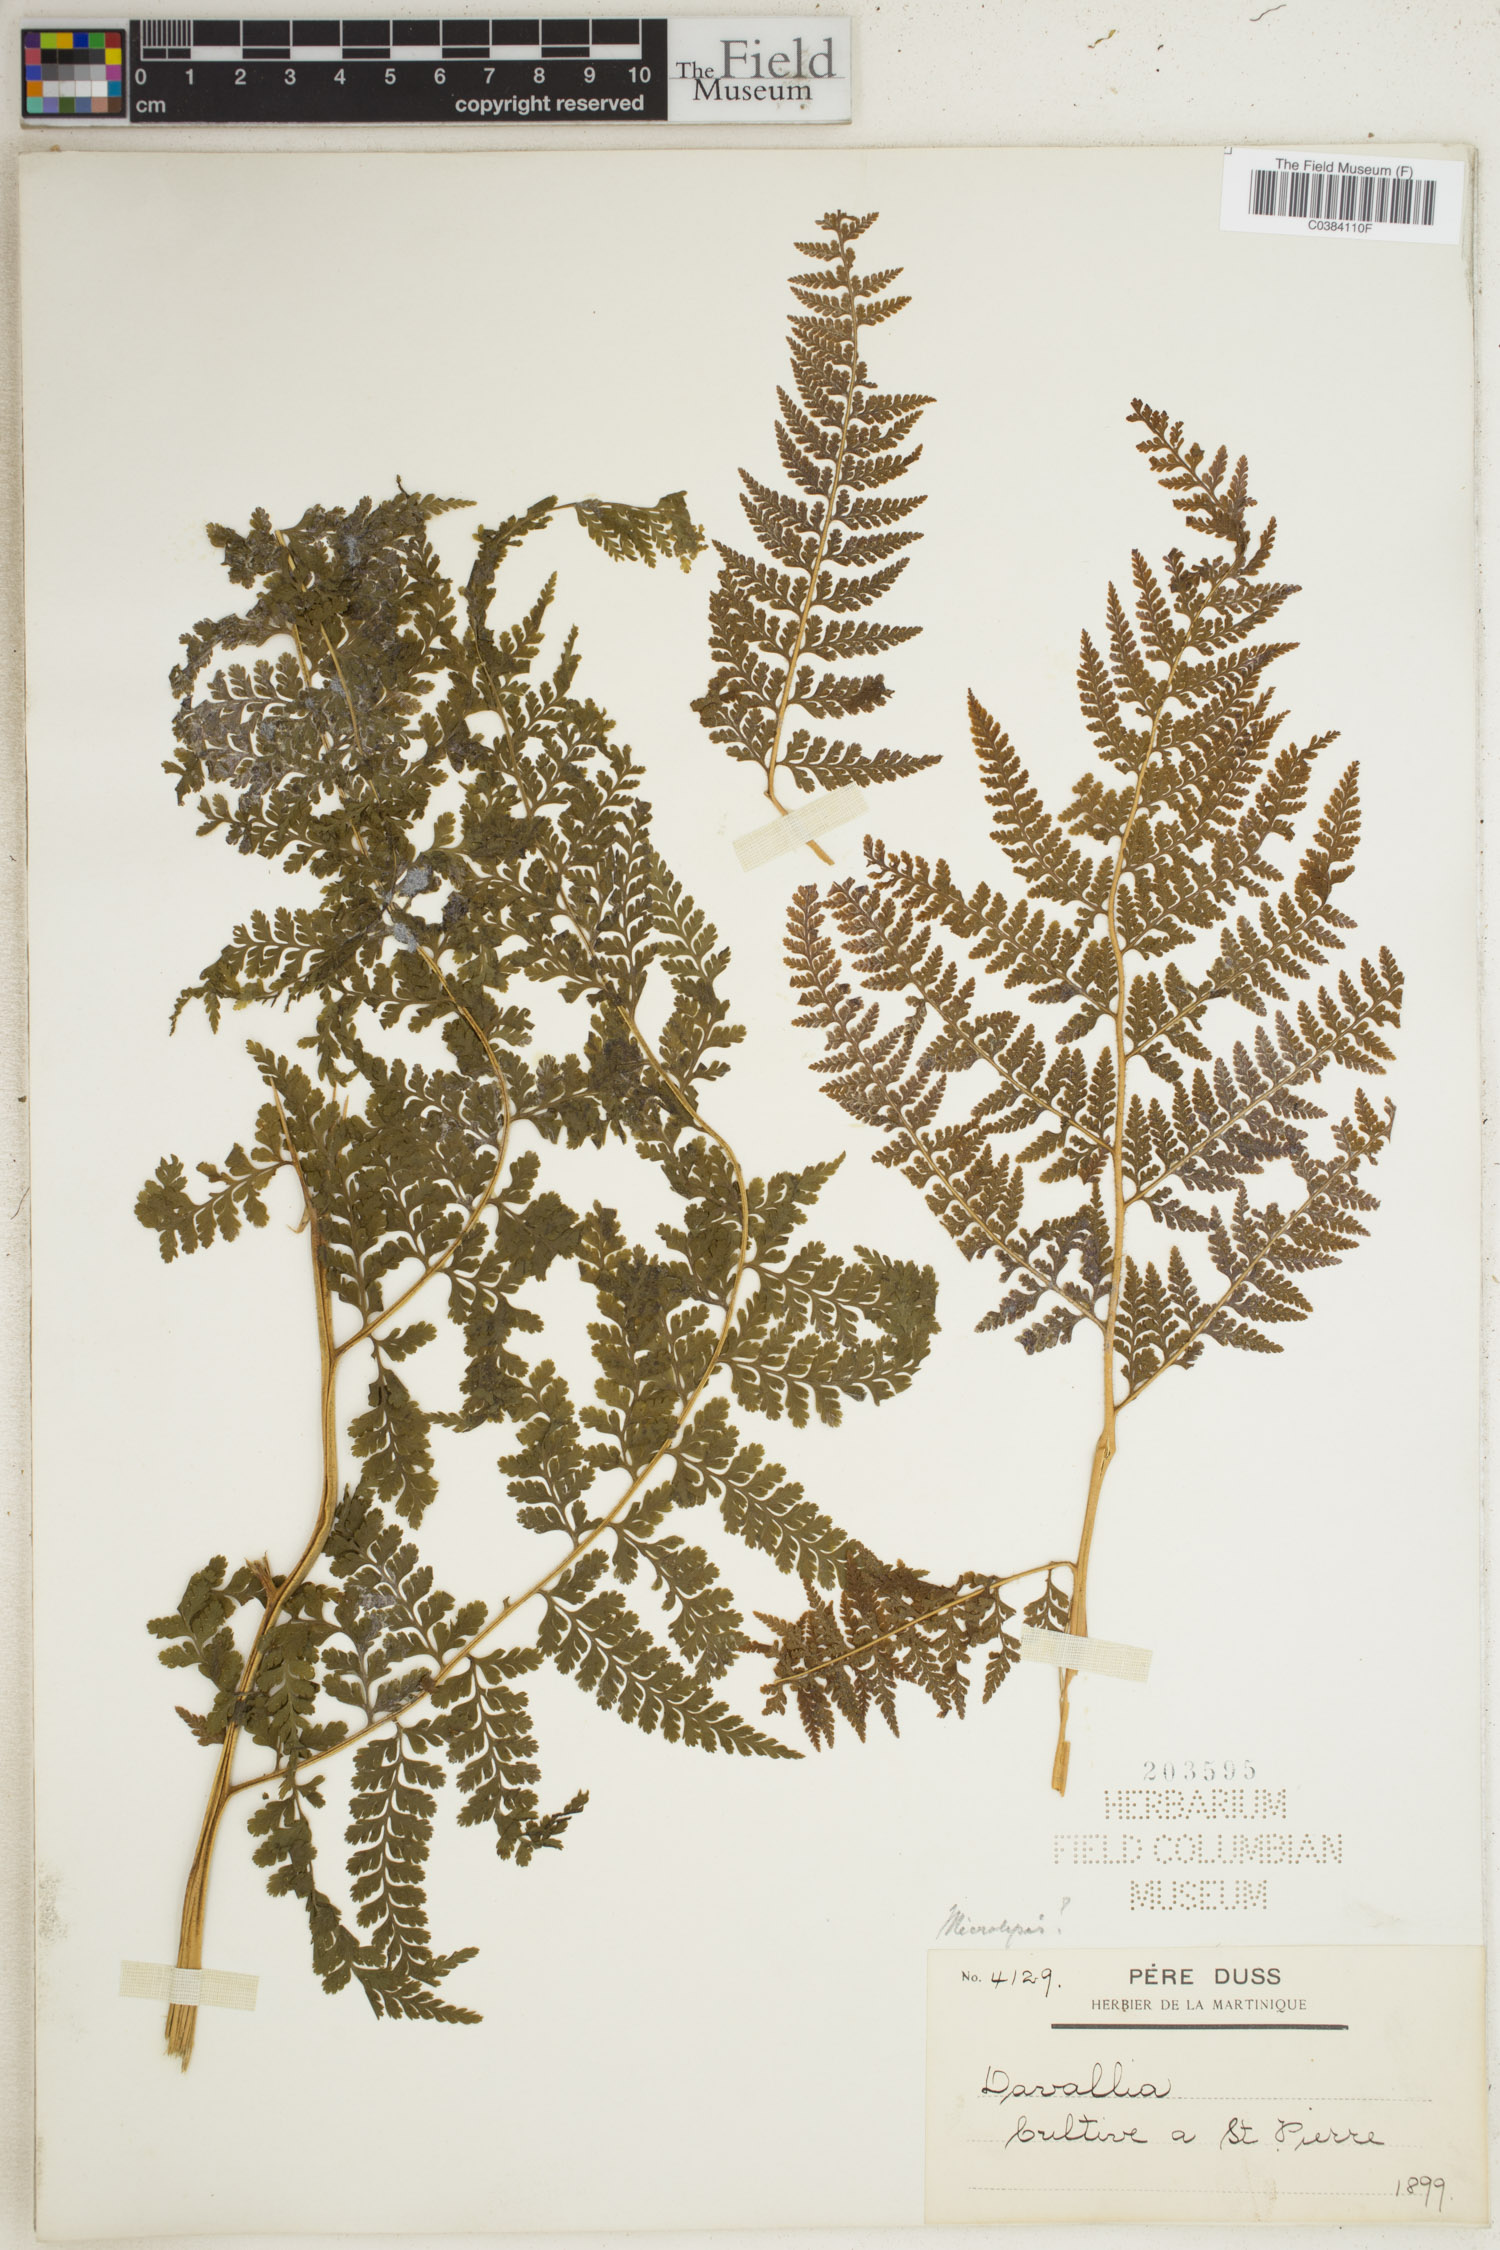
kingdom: Plantae
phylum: Tracheophyta
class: Polypodiopsida
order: Polypodiales
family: Davalliaceae
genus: Davallia
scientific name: Davallia
